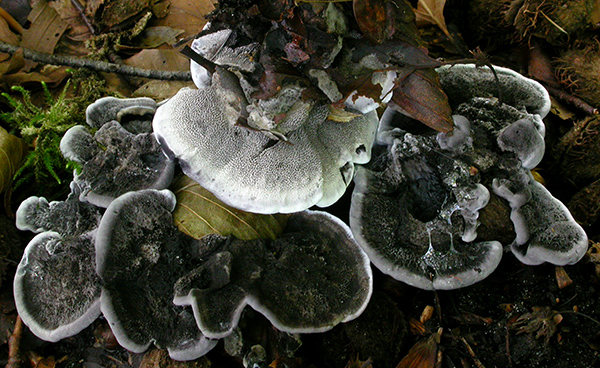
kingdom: Fungi
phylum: Basidiomycota
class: Agaricomycetes
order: Thelephorales
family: Thelephoraceae
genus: Phellodon
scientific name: Phellodon niger
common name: Black tooth
